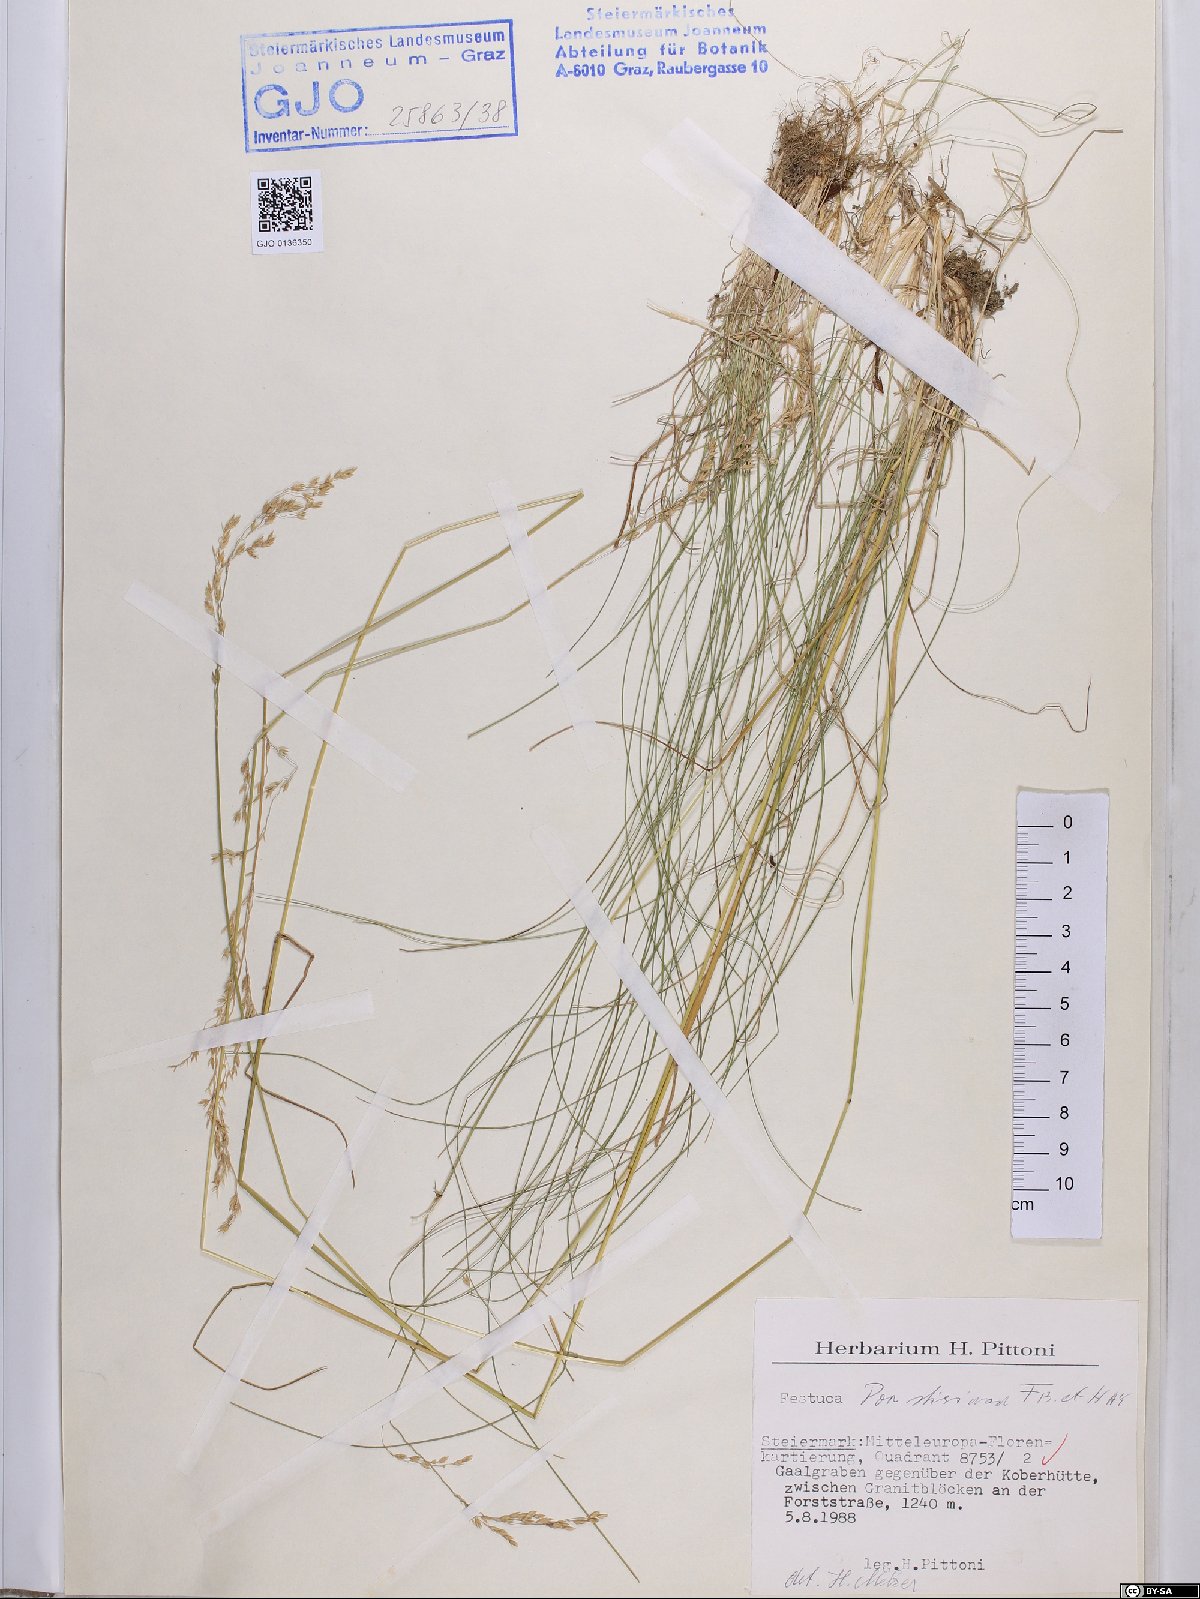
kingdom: Plantae
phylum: Tracheophyta
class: Liliopsida
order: Poales
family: Poaceae
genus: Poa
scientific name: Poa stiriaca
